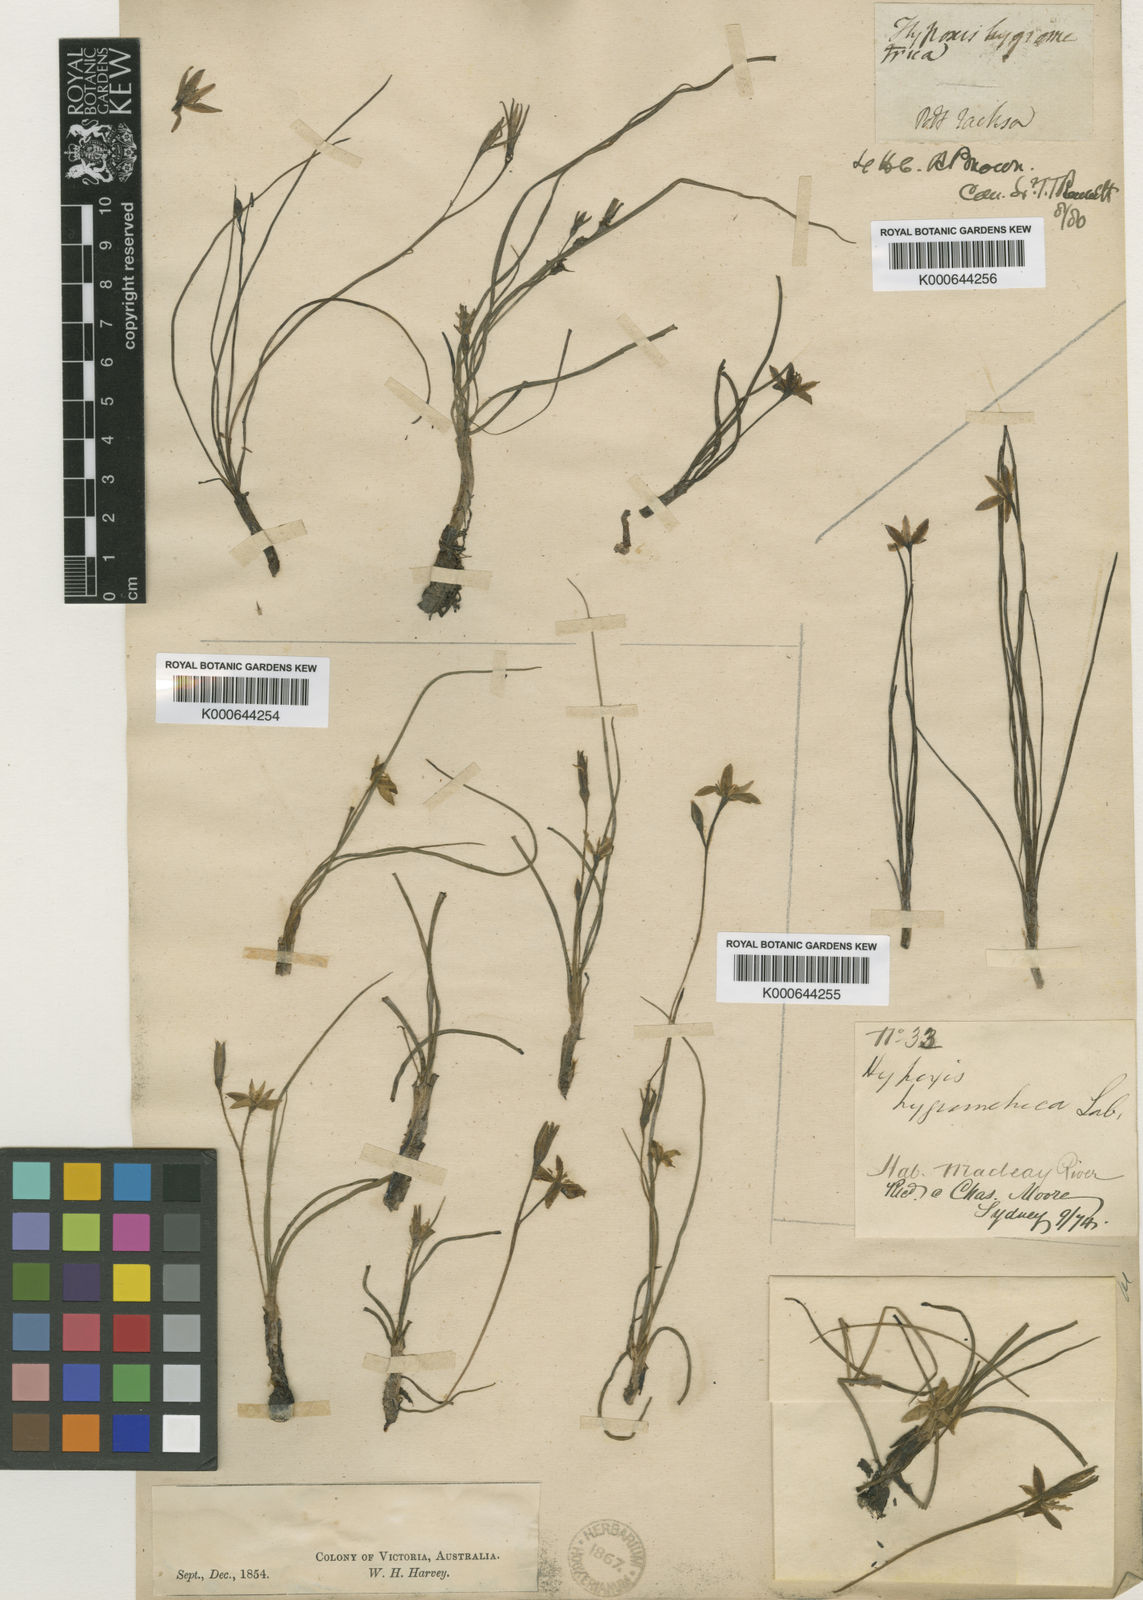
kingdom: Plantae
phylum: Tracheophyta
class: Liliopsida
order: Asparagales
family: Hypoxidaceae
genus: Hypoxis
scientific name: Hypoxis pratensis
